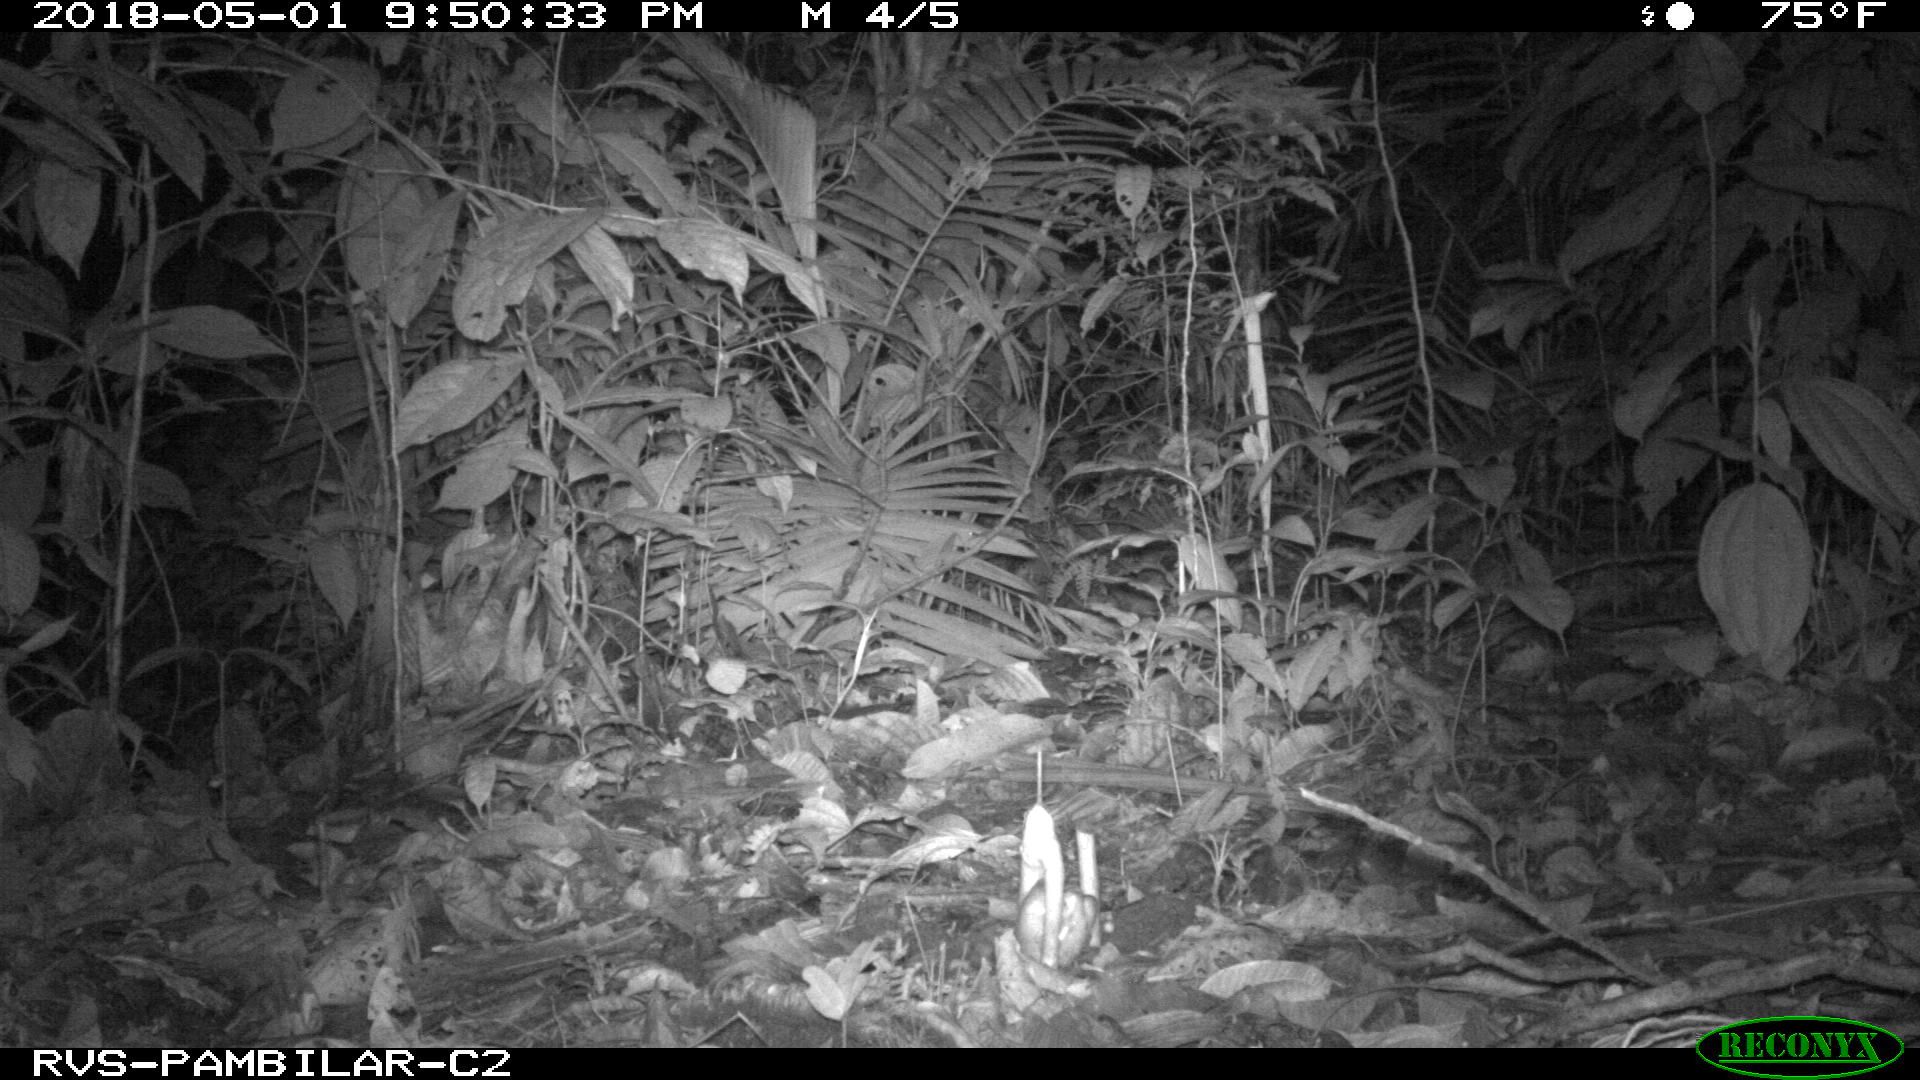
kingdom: Animalia
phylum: Chordata
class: Mammalia
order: Carnivora
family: Felidae
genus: Leopardus
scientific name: Leopardus pardalis
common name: Ocelot
